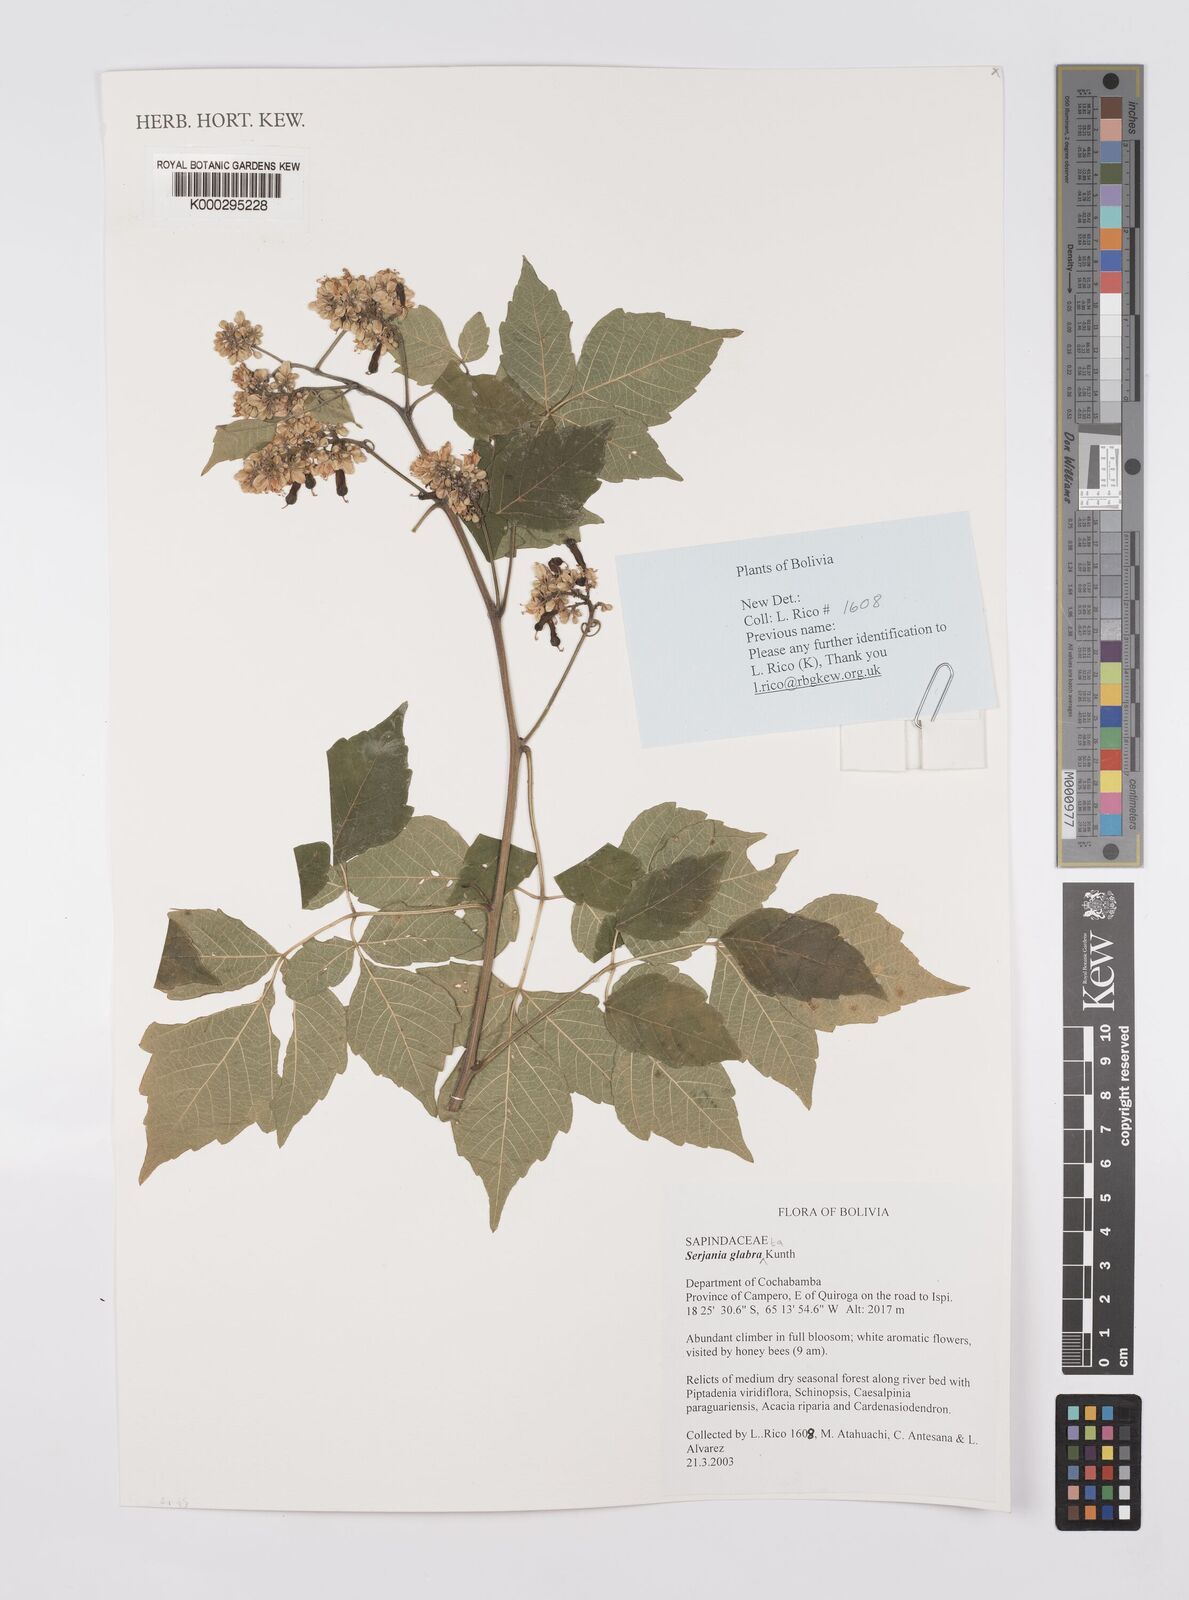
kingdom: Plantae
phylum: Tracheophyta
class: Magnoliopsida
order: Sapindales
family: Sapindaceae
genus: Serjania
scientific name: Serjania
